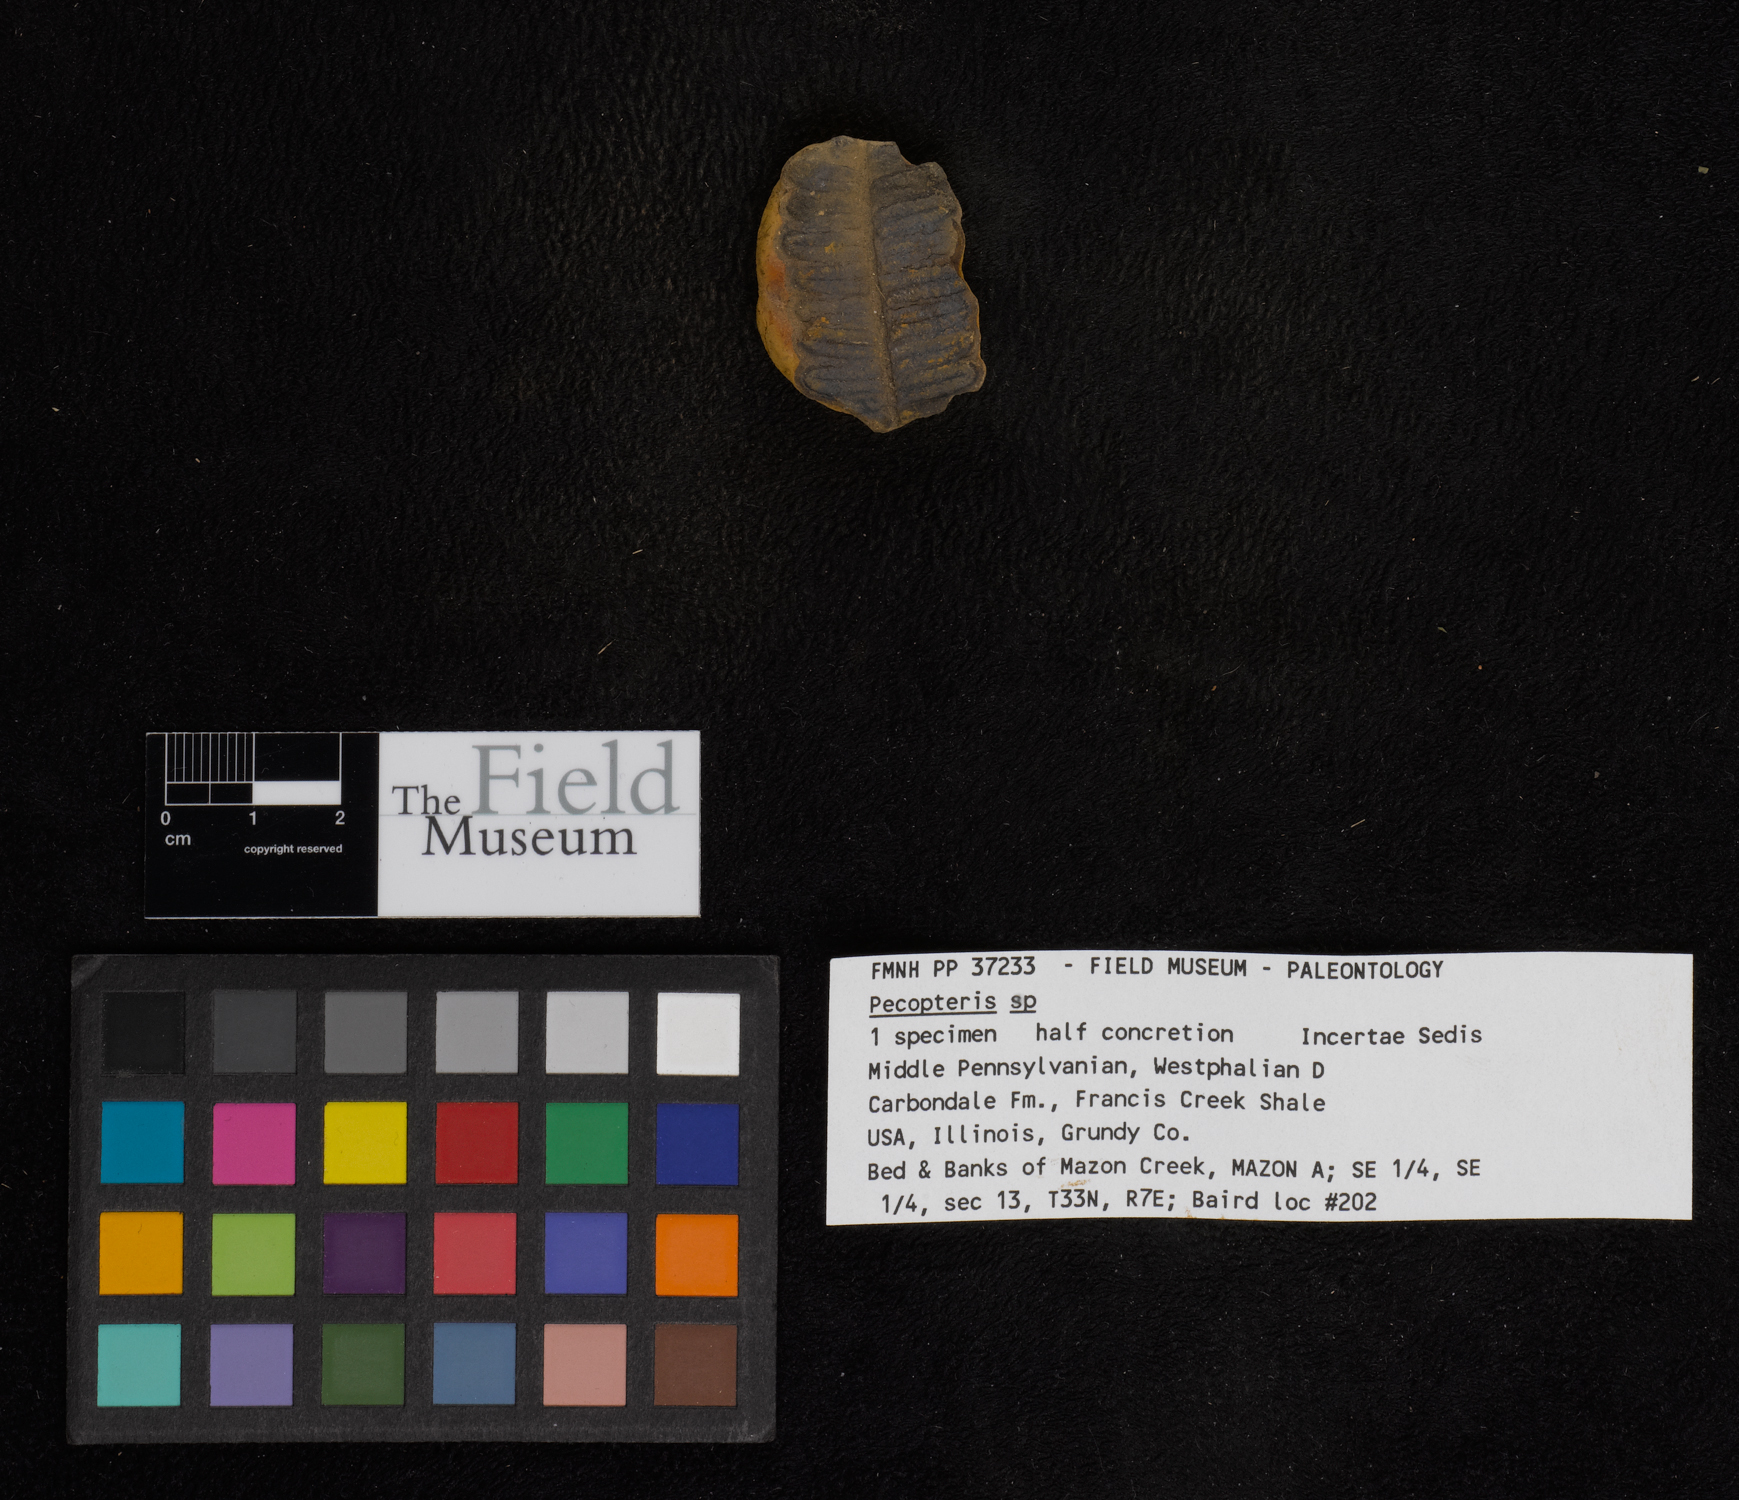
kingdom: Plantae
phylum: Tracheophyta
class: Polypodiopsida
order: Marattiales
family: Asterothecaceae
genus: Pecopteris
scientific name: Pecopteris
